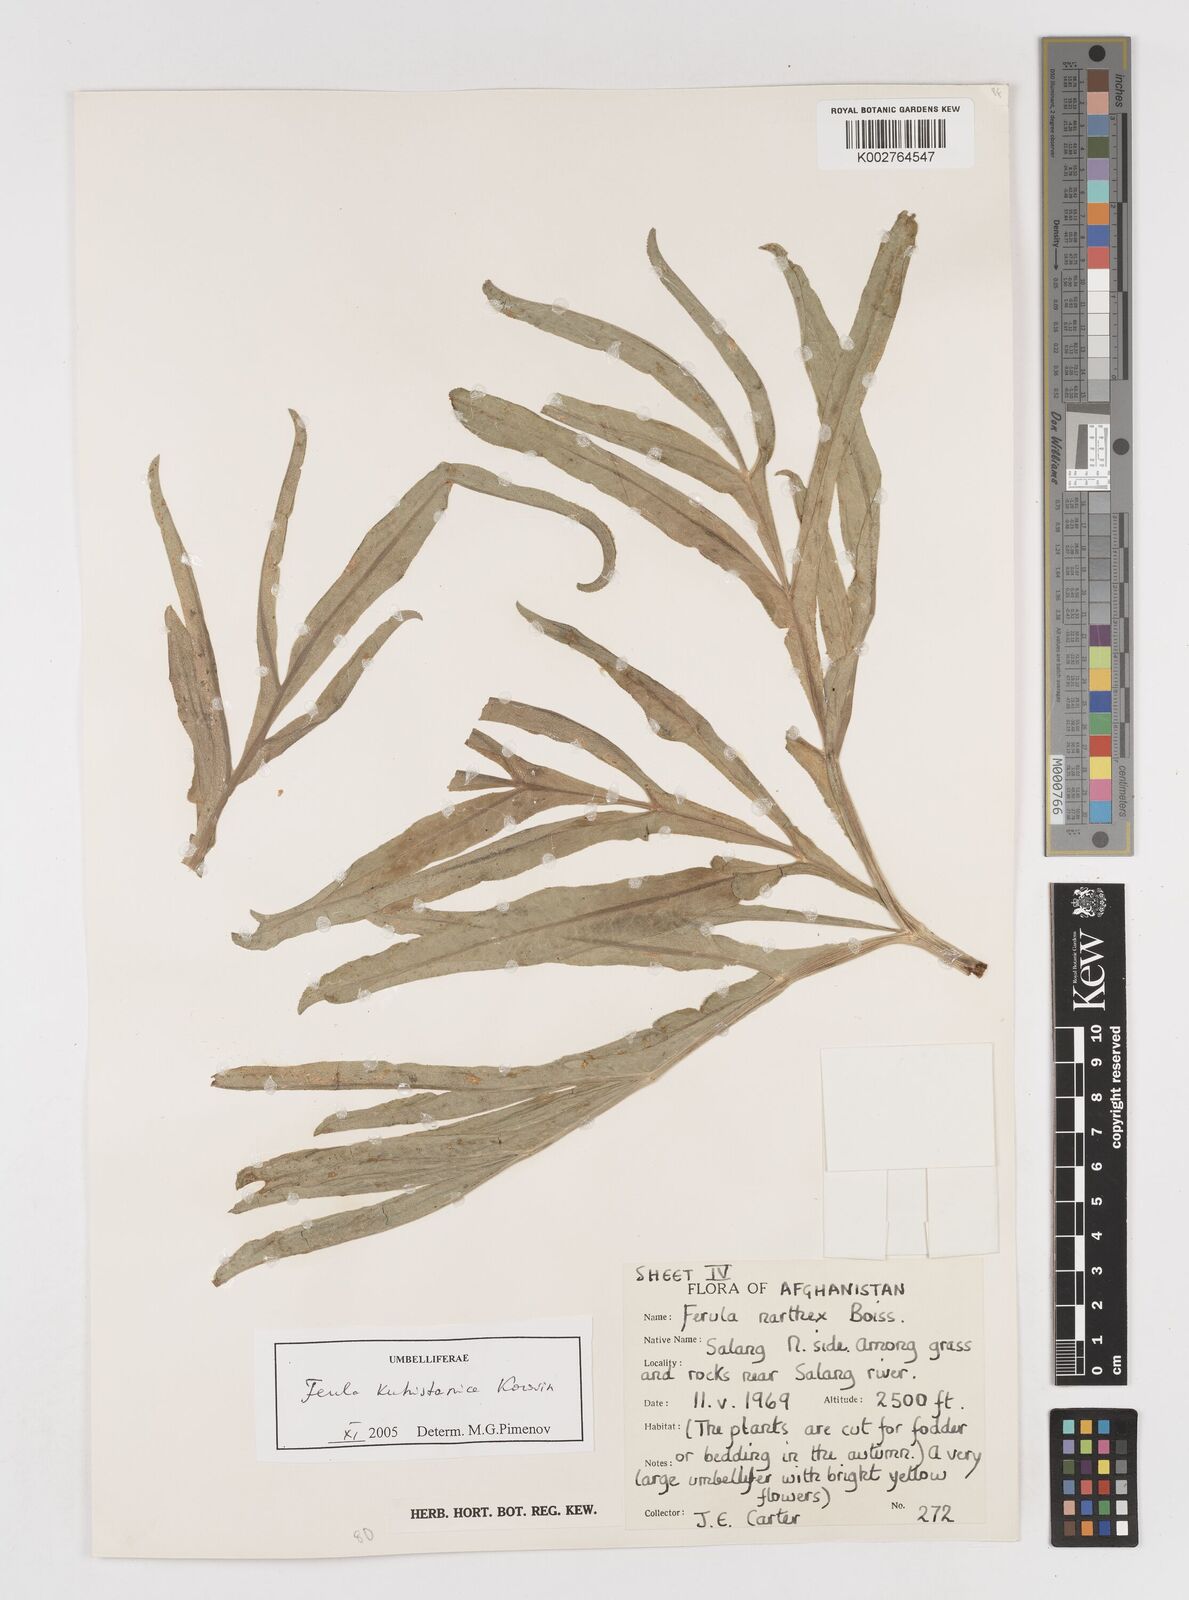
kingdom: Plantae
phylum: Tracheophyta
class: Magnoliopsida
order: Apiales
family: Apiaceae
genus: Ferula
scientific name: Ferula kuhistanica
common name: Kamol
